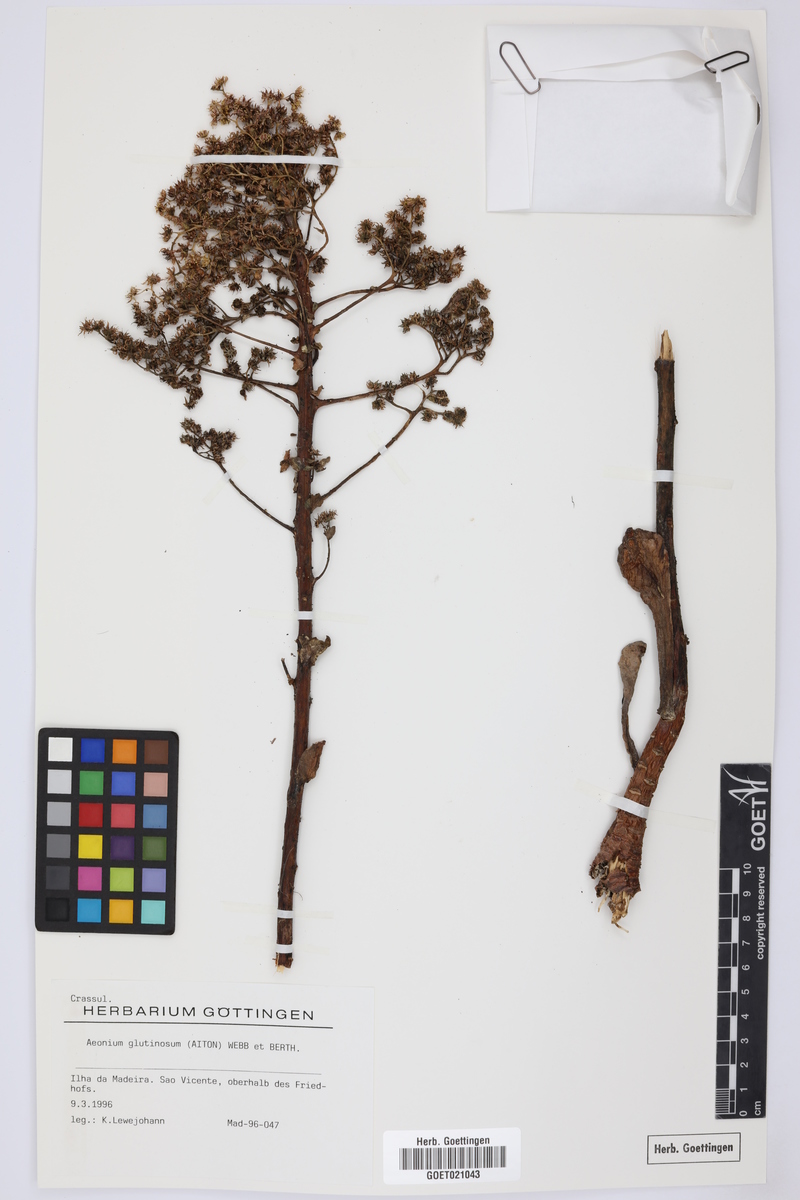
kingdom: Plantae
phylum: Tracheophyta
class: Magnoliopsida
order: Saxifragales
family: Crassulaceae
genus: Aeonium
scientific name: Aeonium glutinosum
